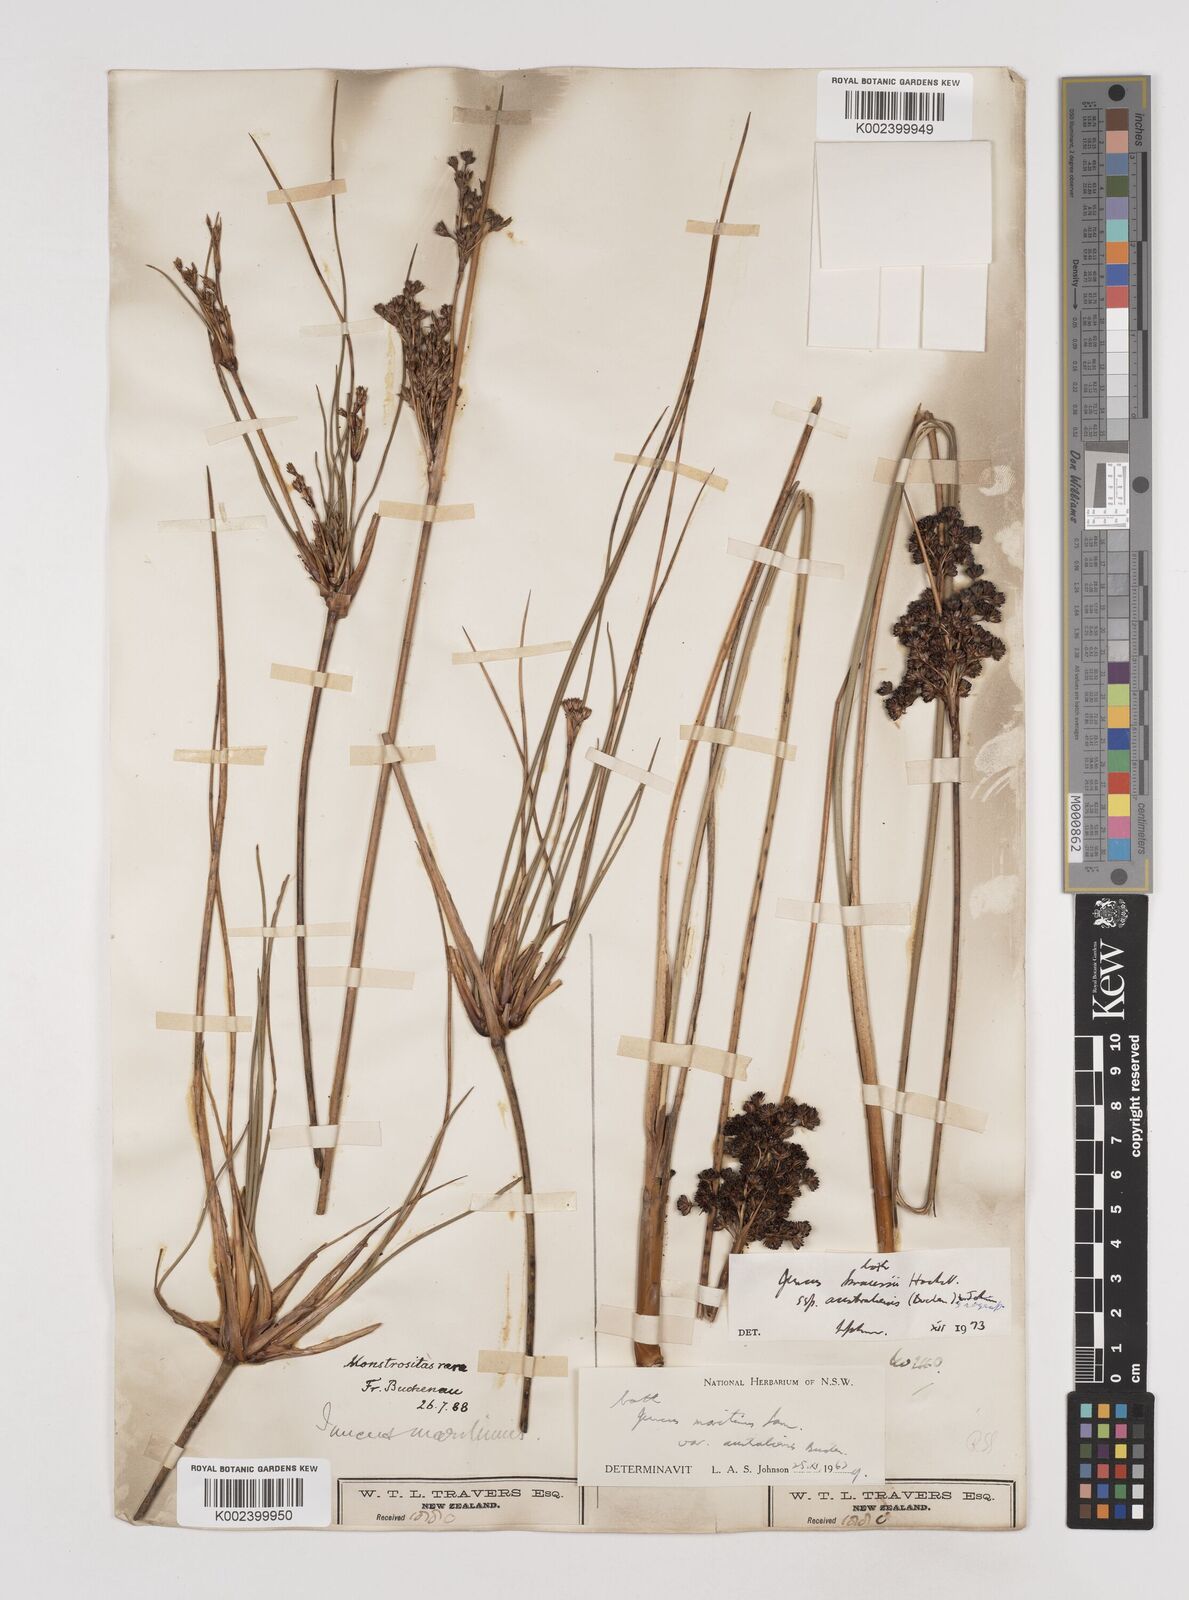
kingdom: Plantae
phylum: Tracheophyta
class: Liliopsida
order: Poales
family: Juncaceae
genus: Juncus
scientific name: Juncus kraussii
